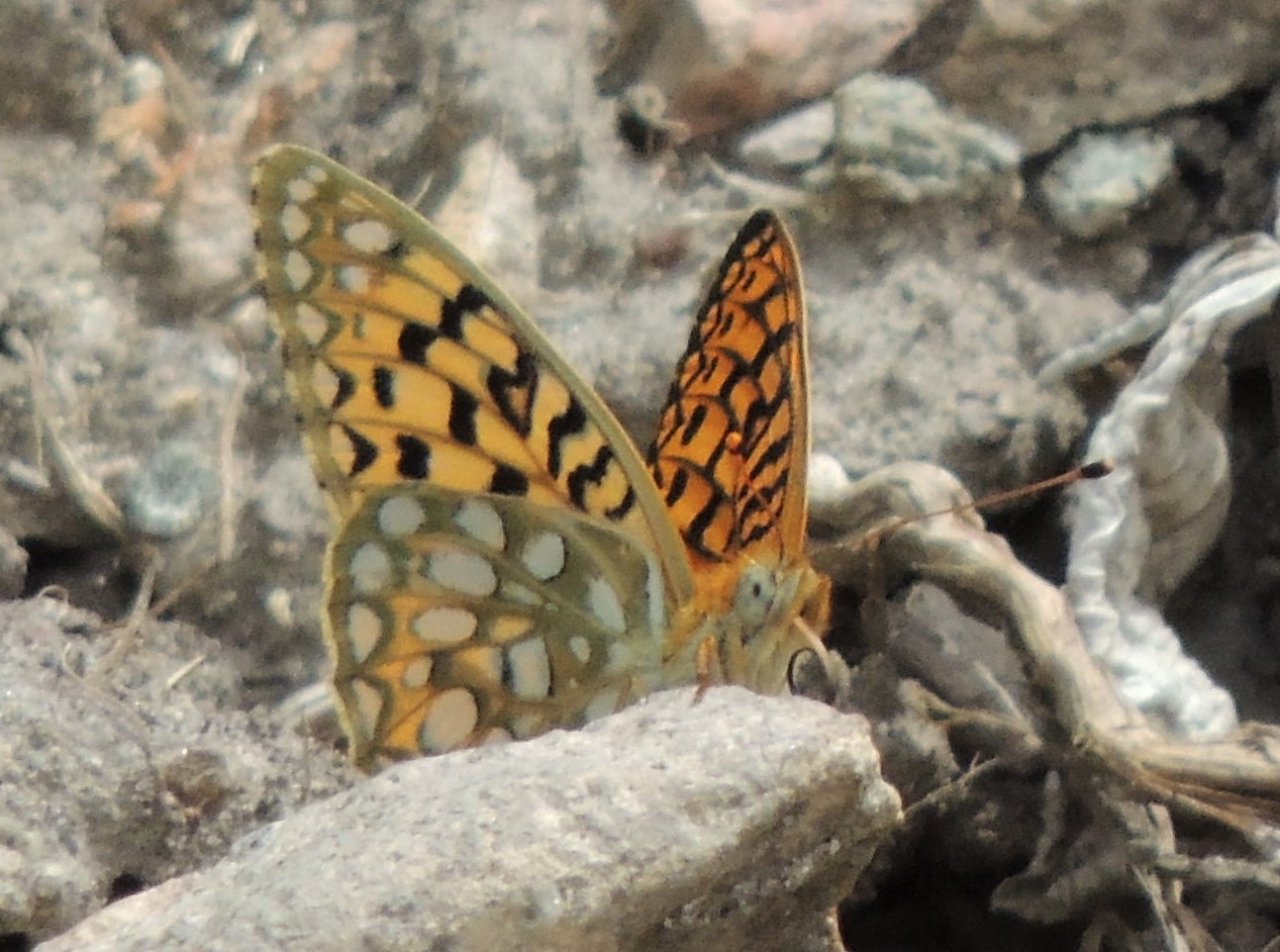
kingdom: Animalia
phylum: Arthropoda
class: Insecta
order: Lepidoptera
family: Nymphalidae
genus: Speyeria
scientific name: Speyeria callippe
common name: Callippe Fritillary
